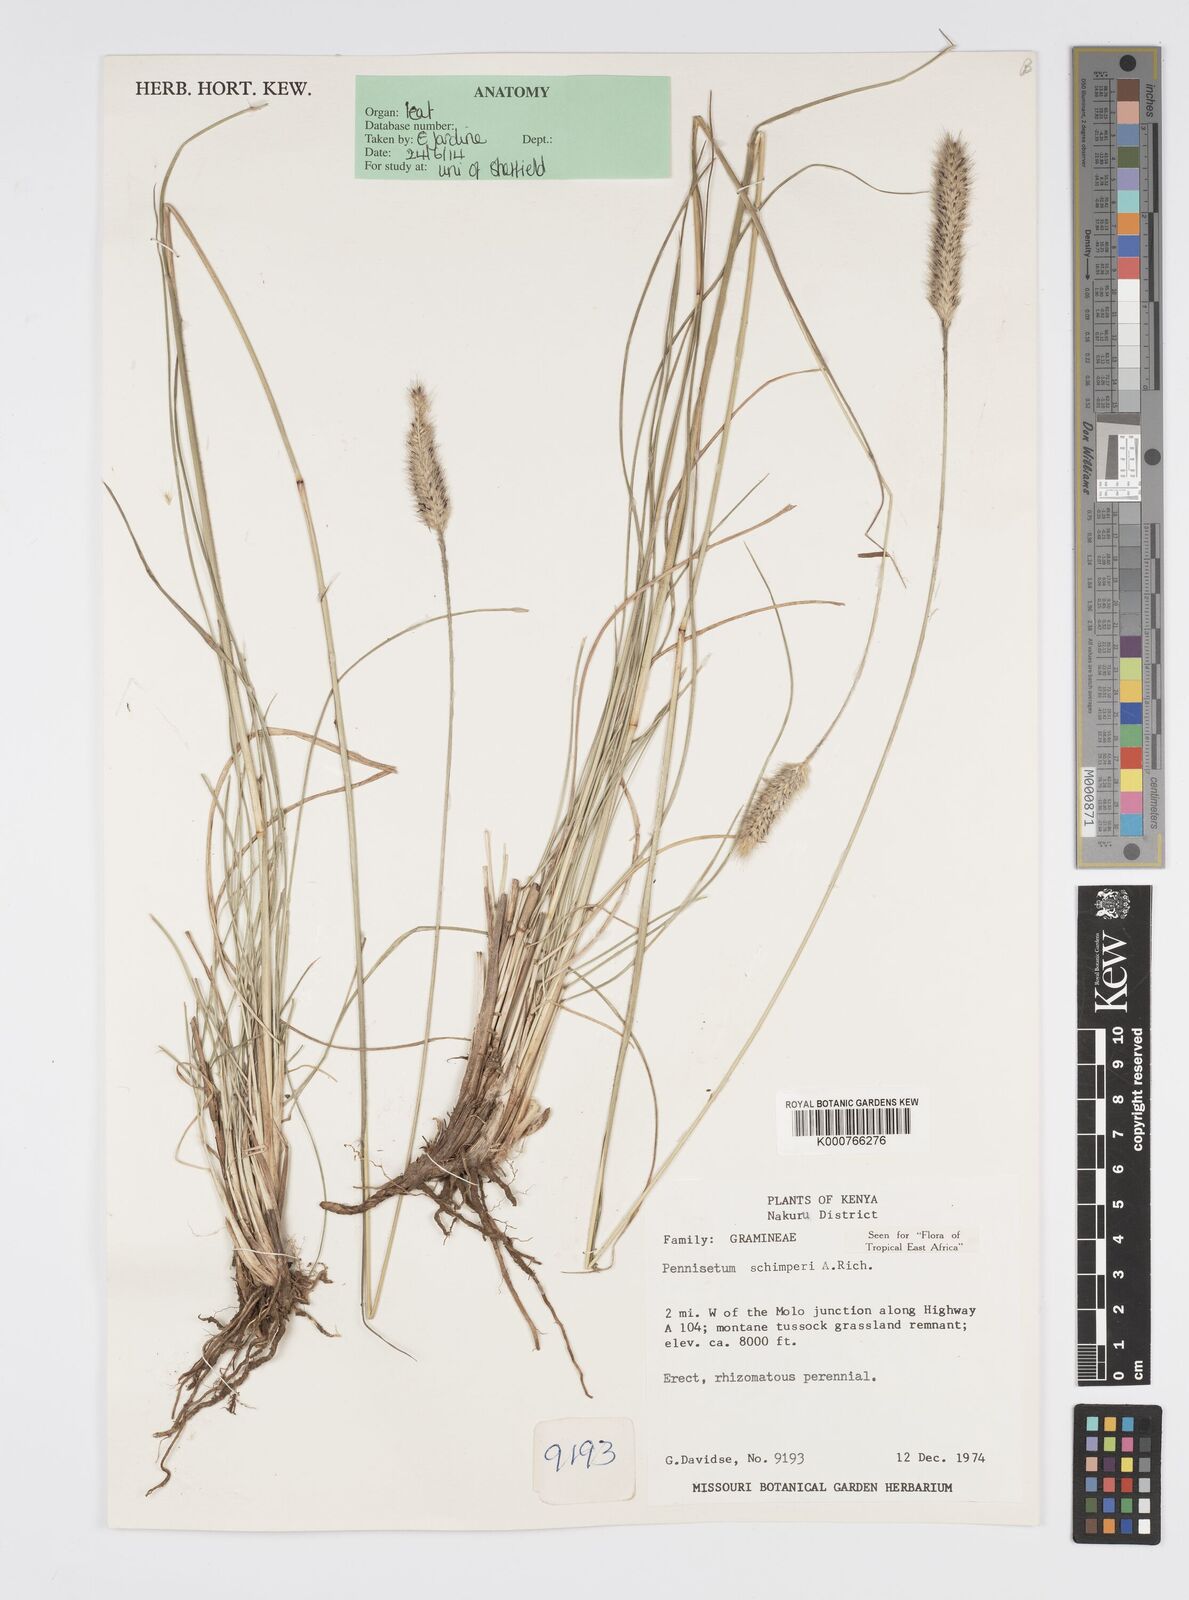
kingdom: Plantae
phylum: Tracheophyta
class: Liliopsida
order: Poales
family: Poaceae
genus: Cenchrus
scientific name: Cenchrus sphacelatus
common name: Bulgras
